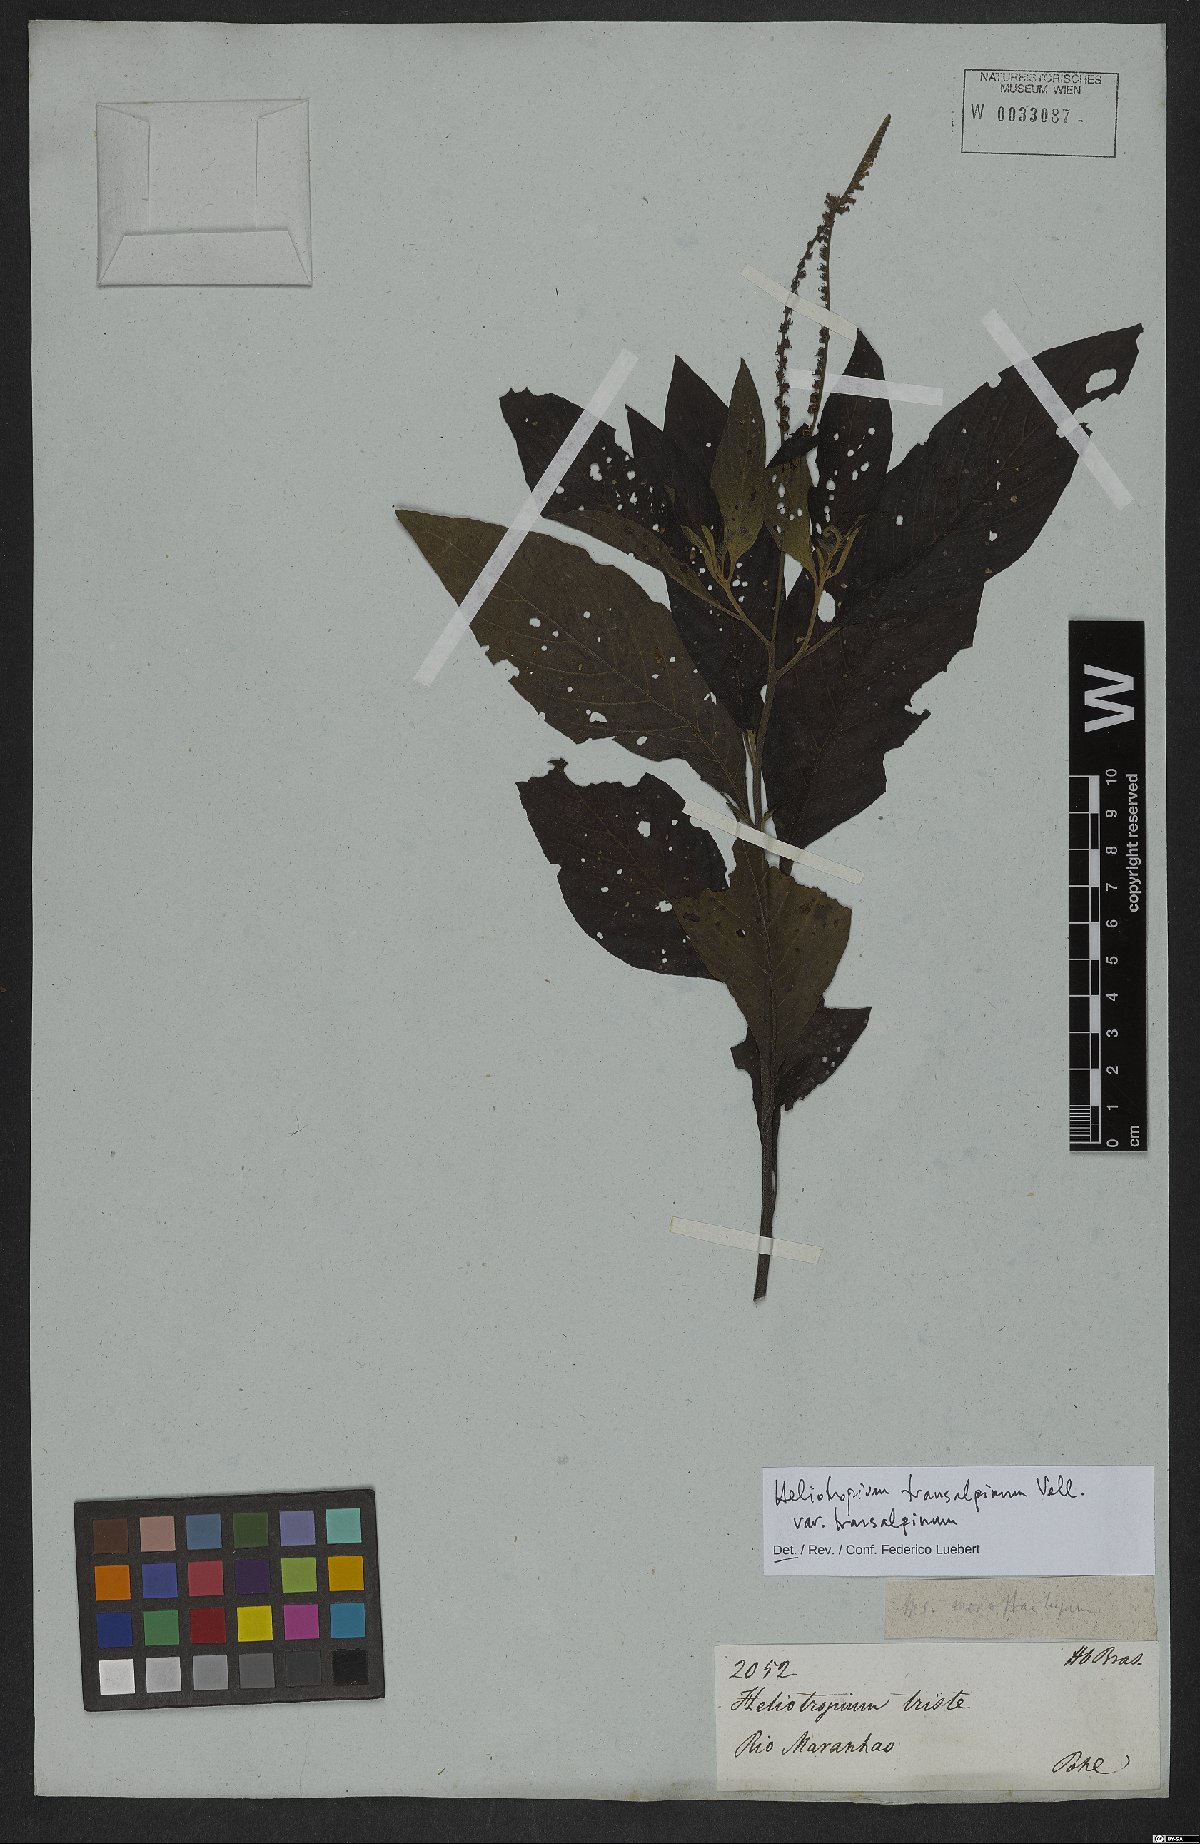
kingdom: Plantae
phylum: Tracheophyta
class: Magnoliopsida
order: Boraginales
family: Heliotropiaceae
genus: Heliotropium
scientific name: Heliotropium transalpinum
